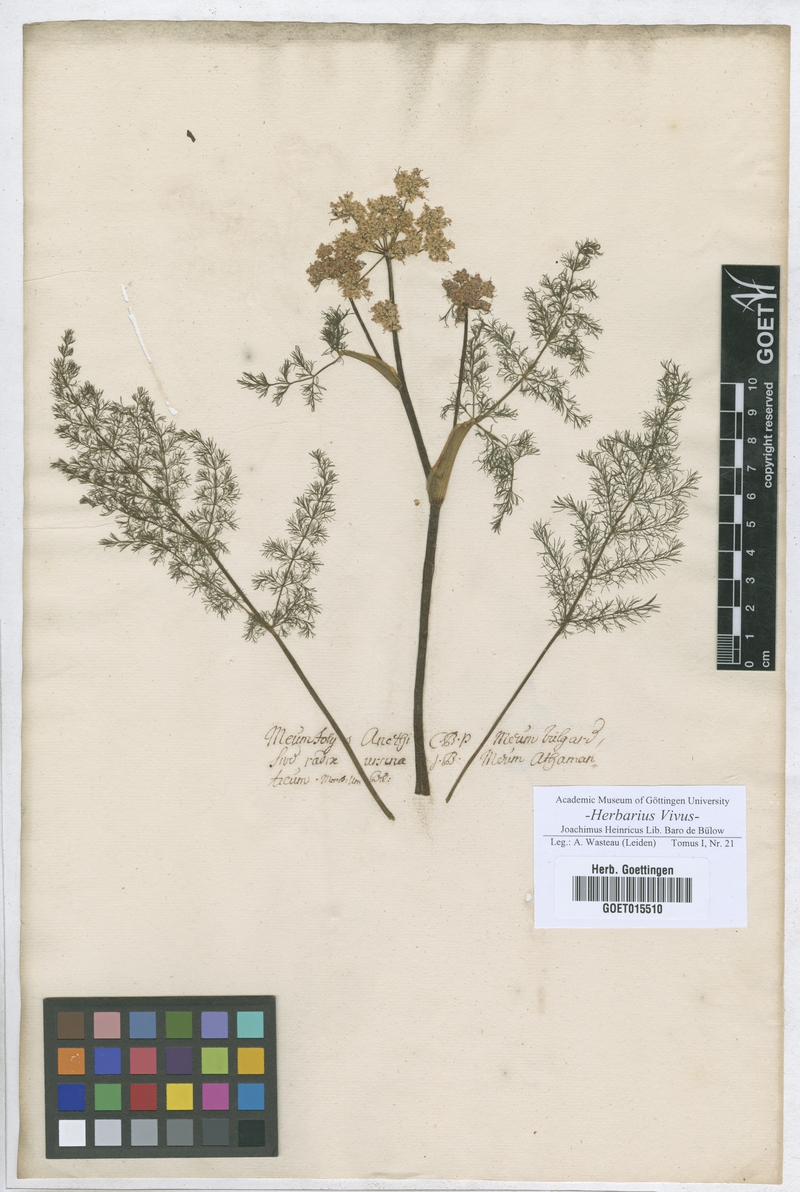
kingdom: Plantae
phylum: Tracheophyta
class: Magnoliopsida
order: Apiales
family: Apiaceae
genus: Foeniculum
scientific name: Foeniculum vulgare
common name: Fennel
